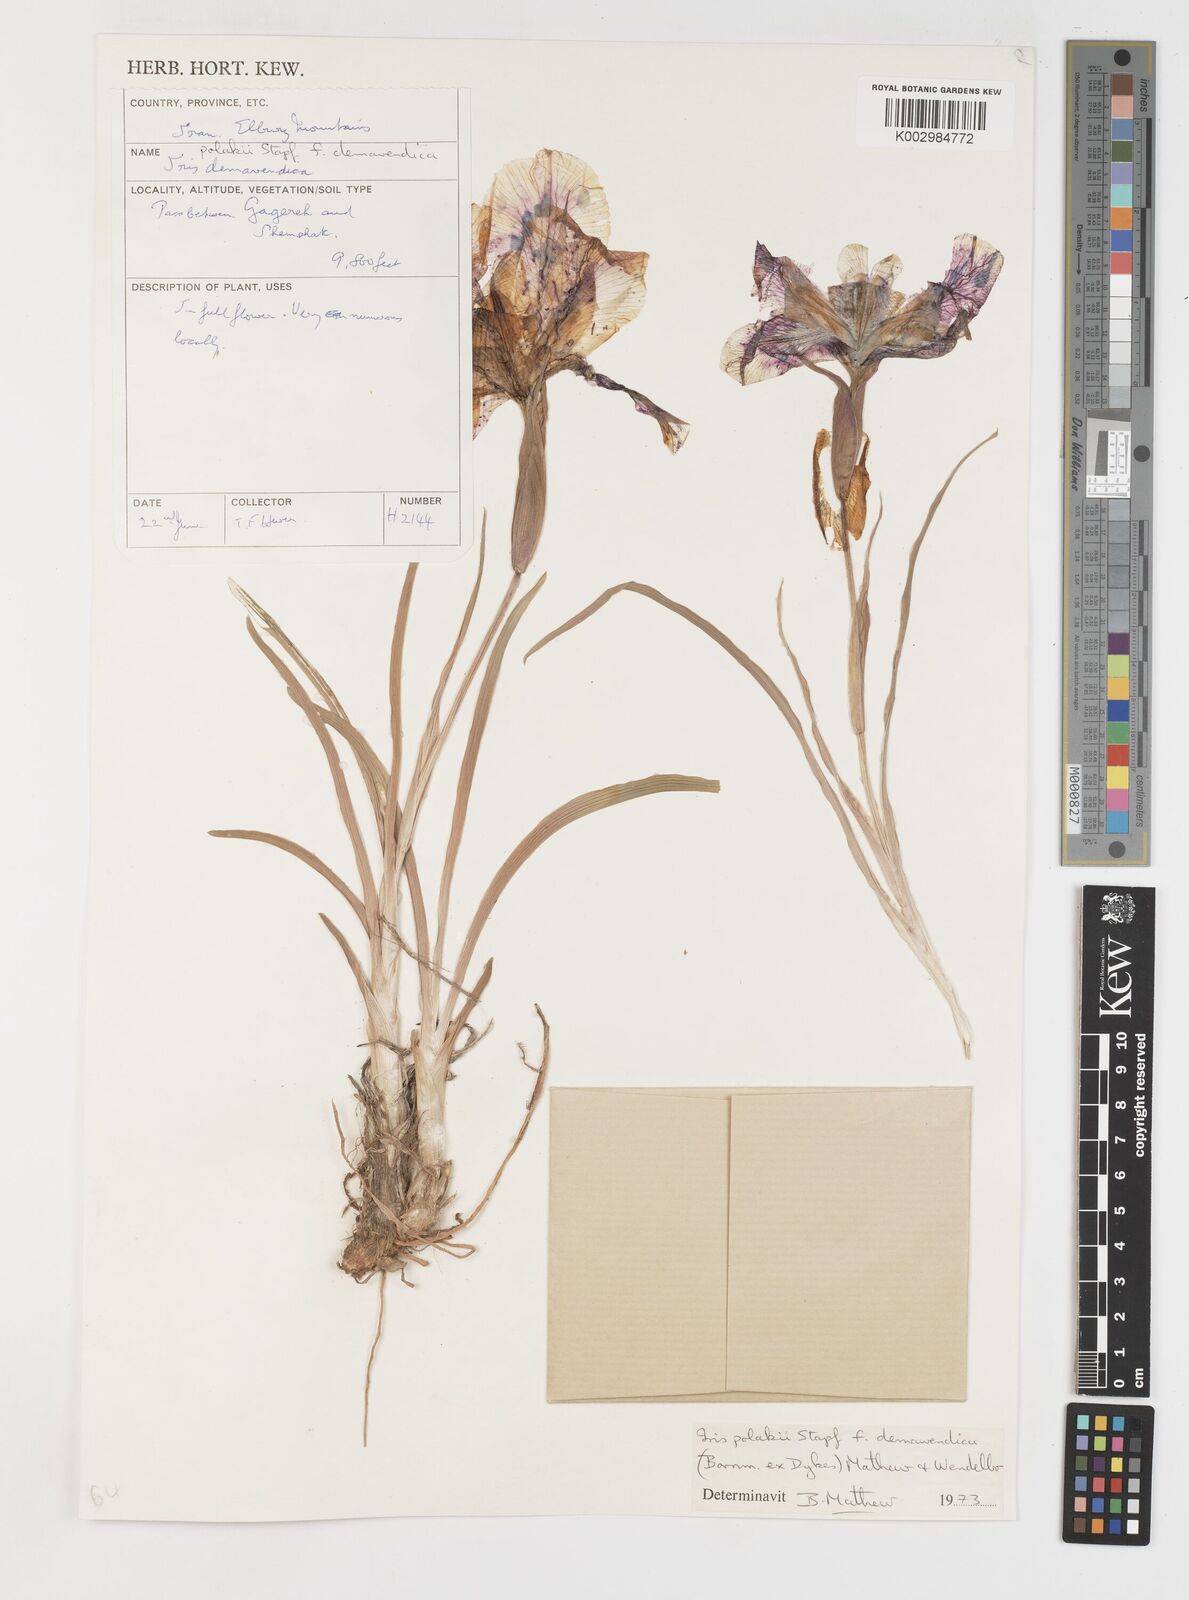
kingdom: Plantae
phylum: Tracheophyta
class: Liliopsida
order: Asparagales
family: Iridaceae
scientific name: Iridaceae
